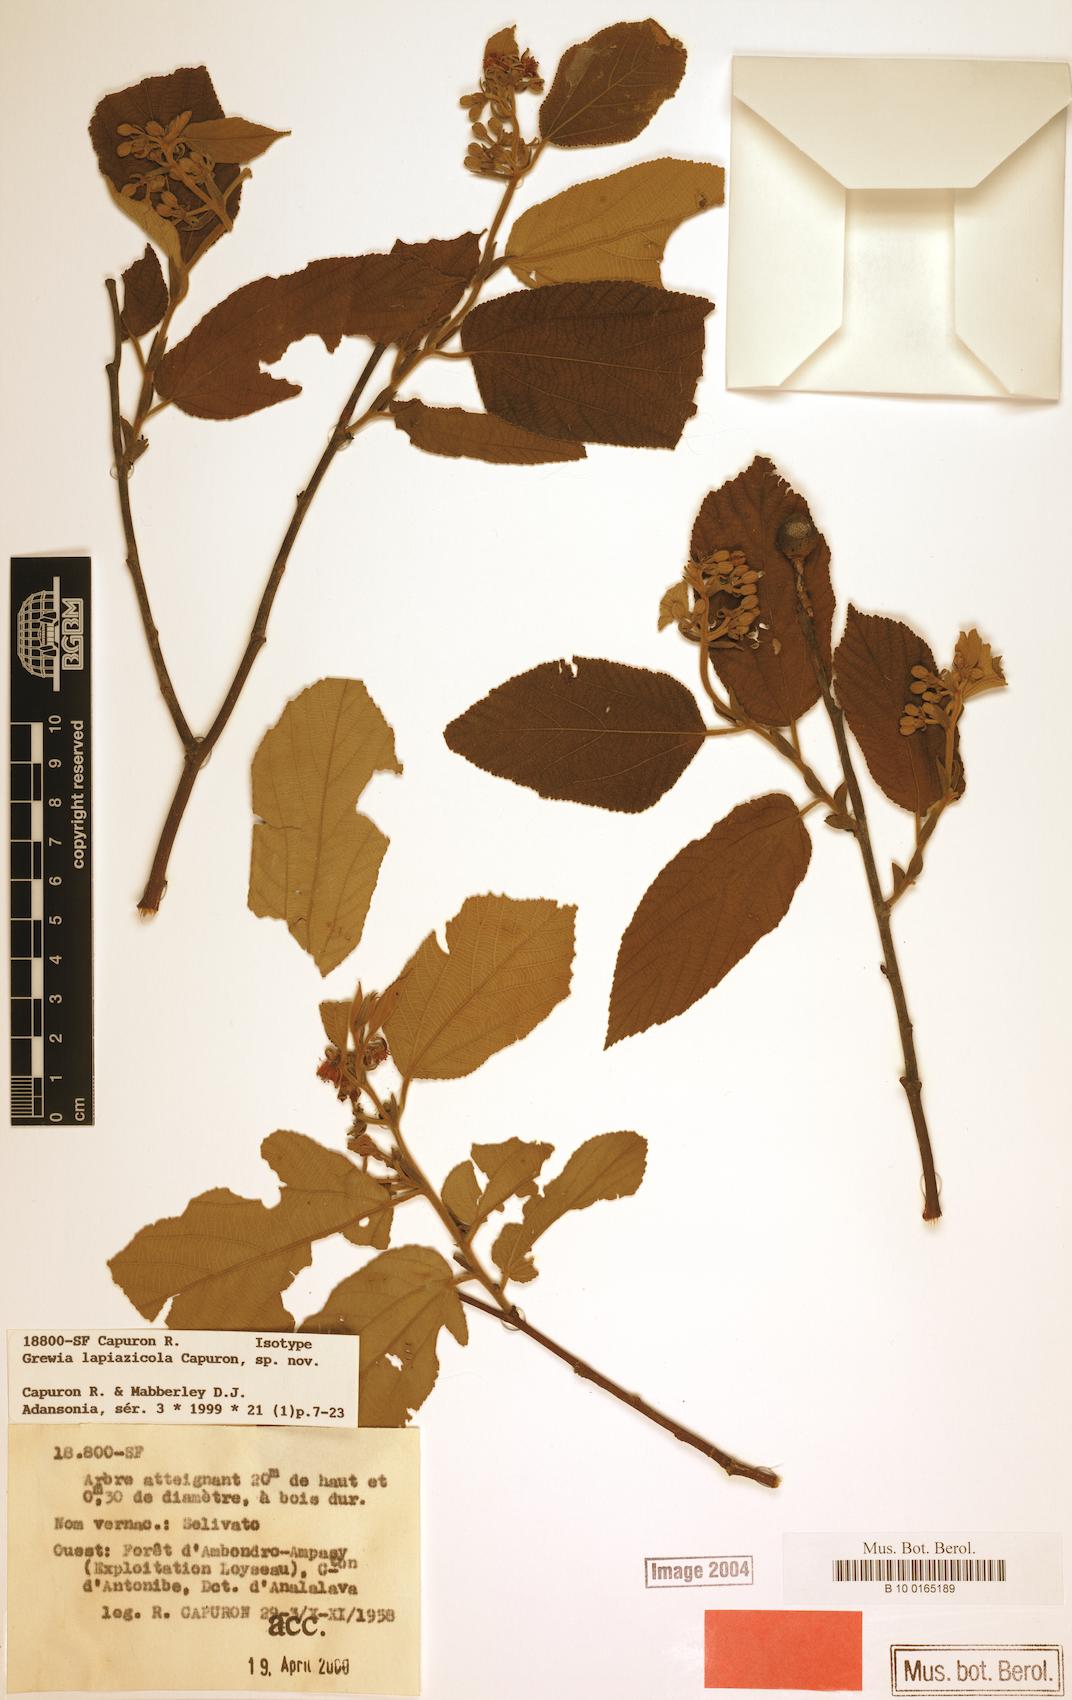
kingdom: Plantae
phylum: Tracheophyta
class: Magnoliopsida
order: Malvales
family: Malvaceae
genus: Grewia
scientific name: Grewia lapiazicola
